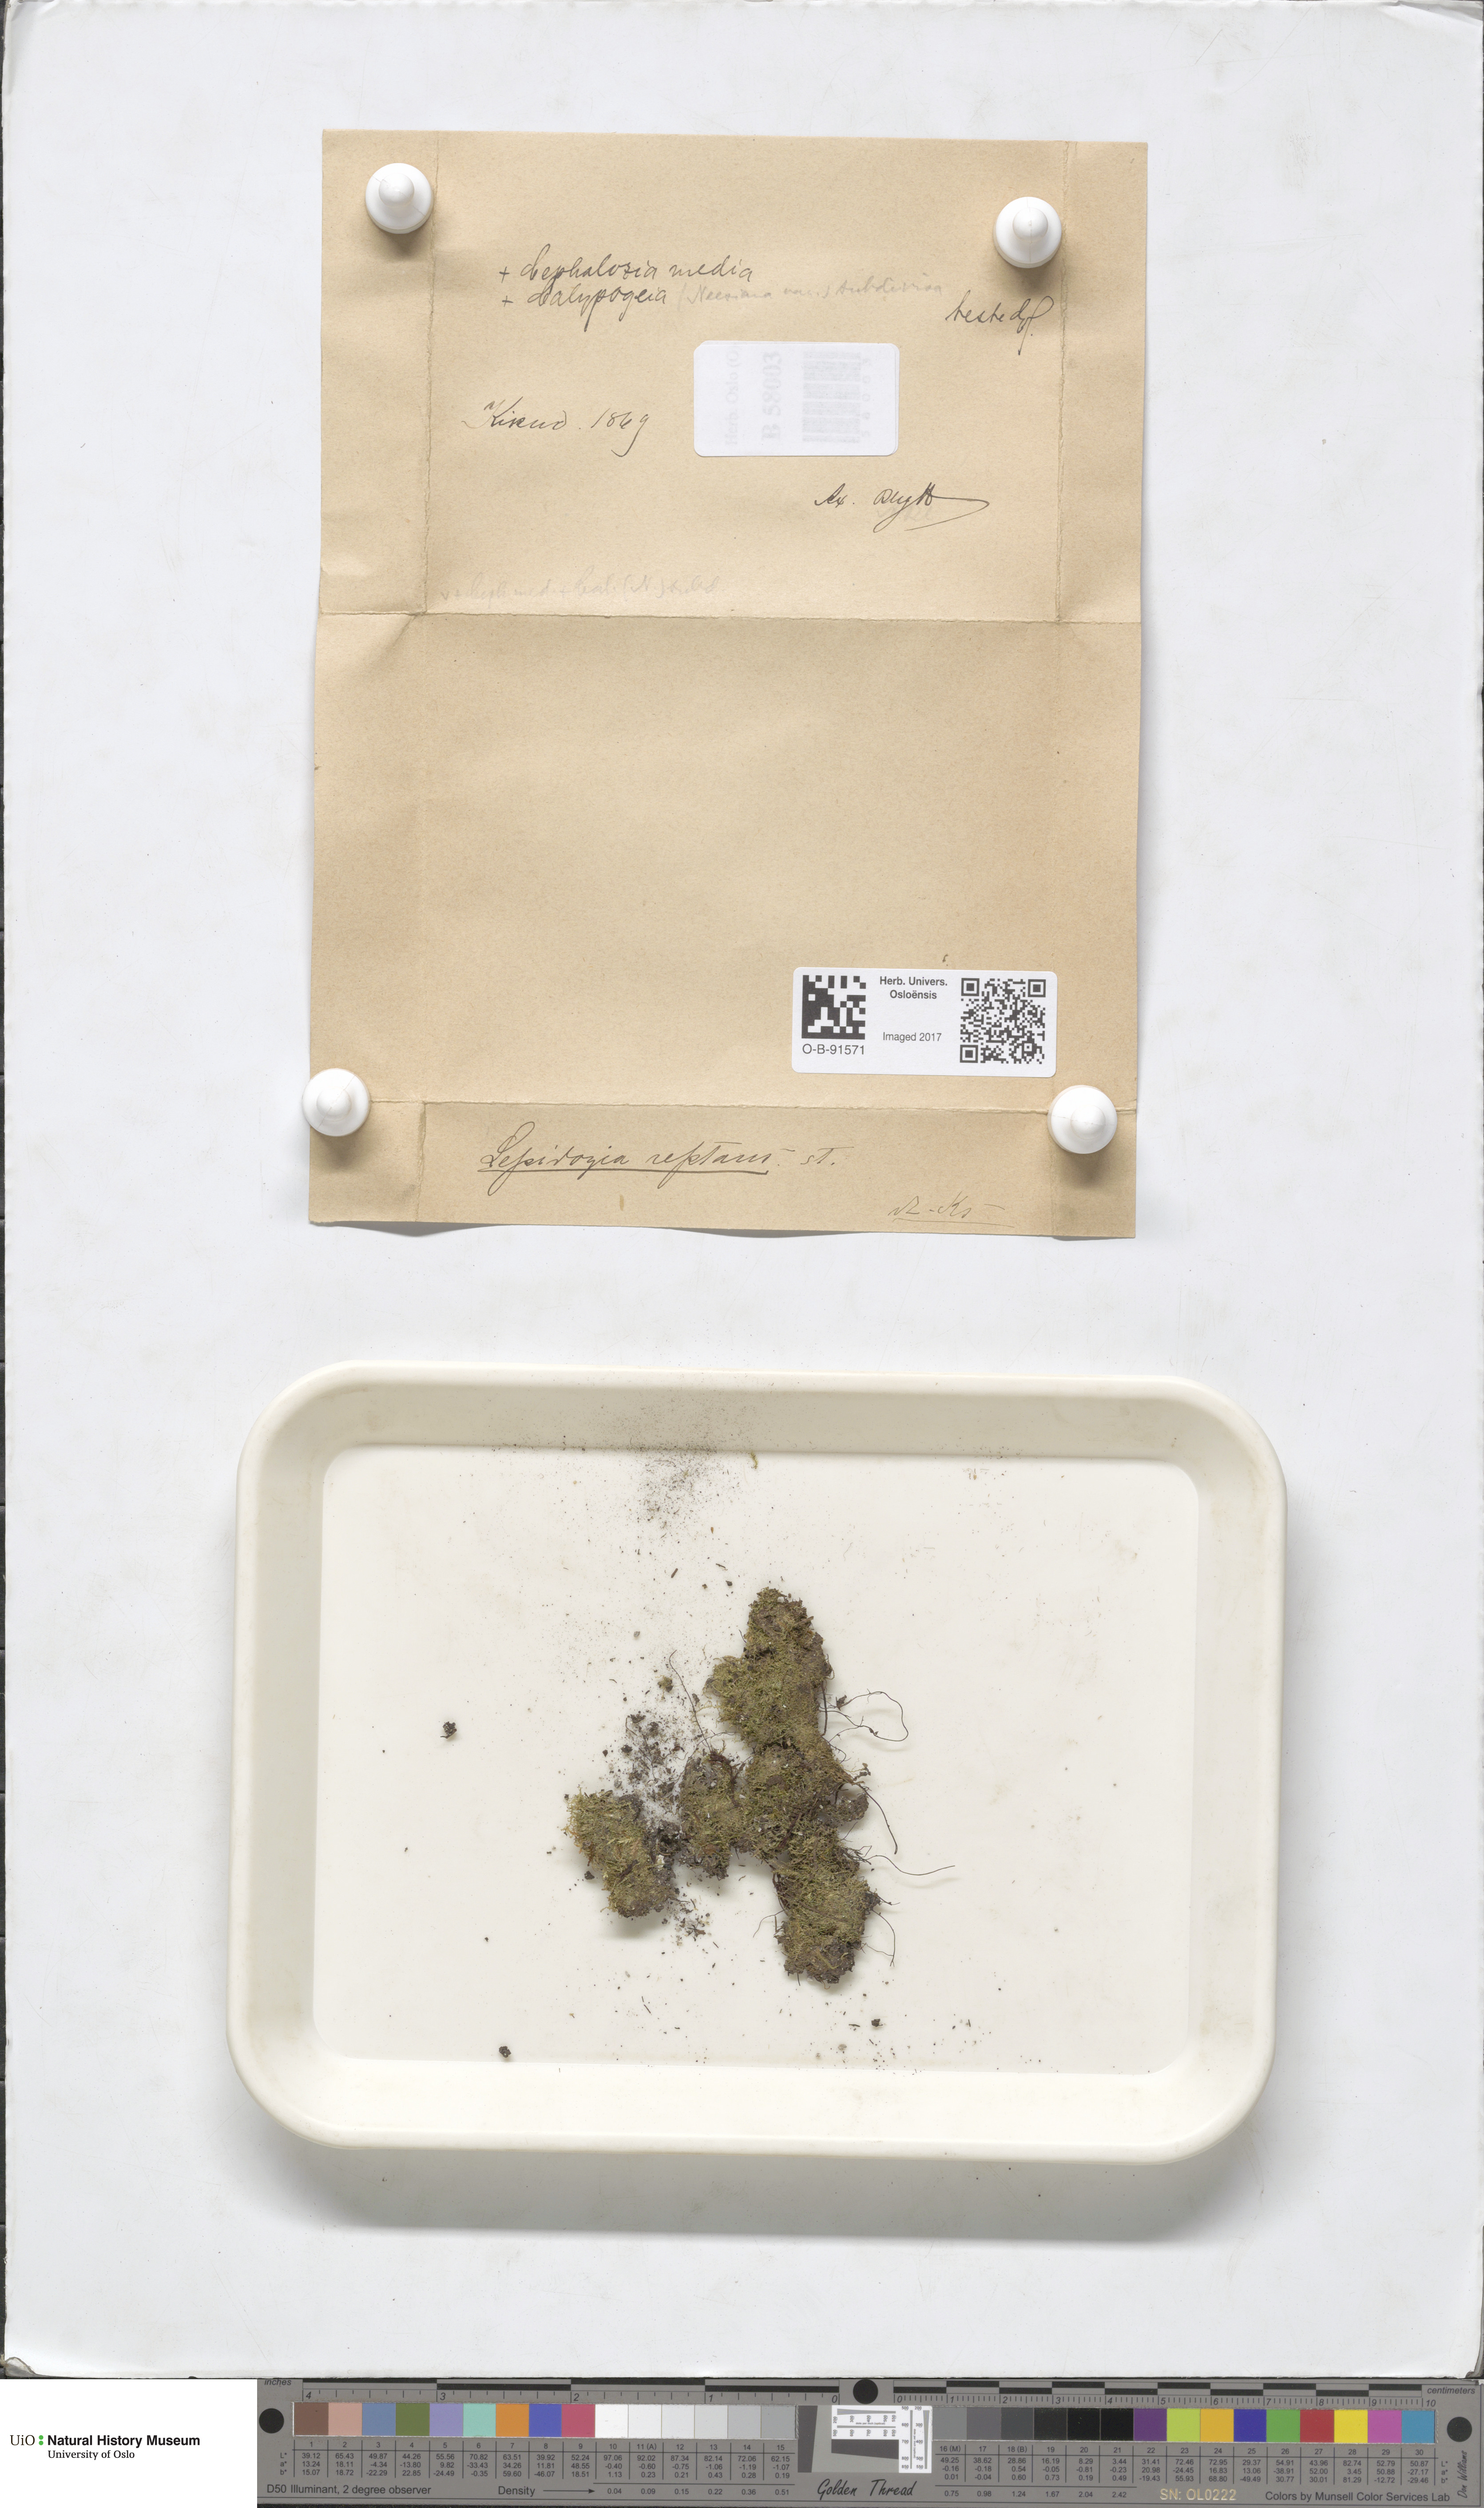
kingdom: Plantae
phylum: Marchantiophyta
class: Jungermanniopsida
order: Jungermanniales
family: Lepidoziaceae
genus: Lepidozia
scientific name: Lepidozia reptans
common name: Creeping fingerwort
